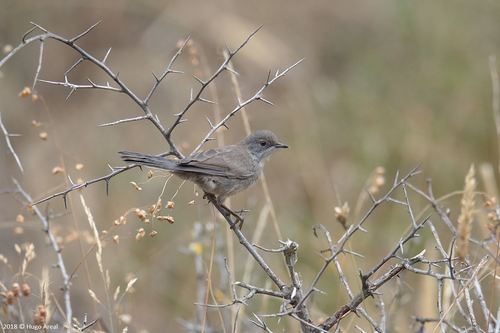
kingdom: Animalia
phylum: Chordata
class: Aves
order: Passeriformes
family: Sylviidae
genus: Sylvia
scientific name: Sylvia melanocephala
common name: Sardinian warbler
